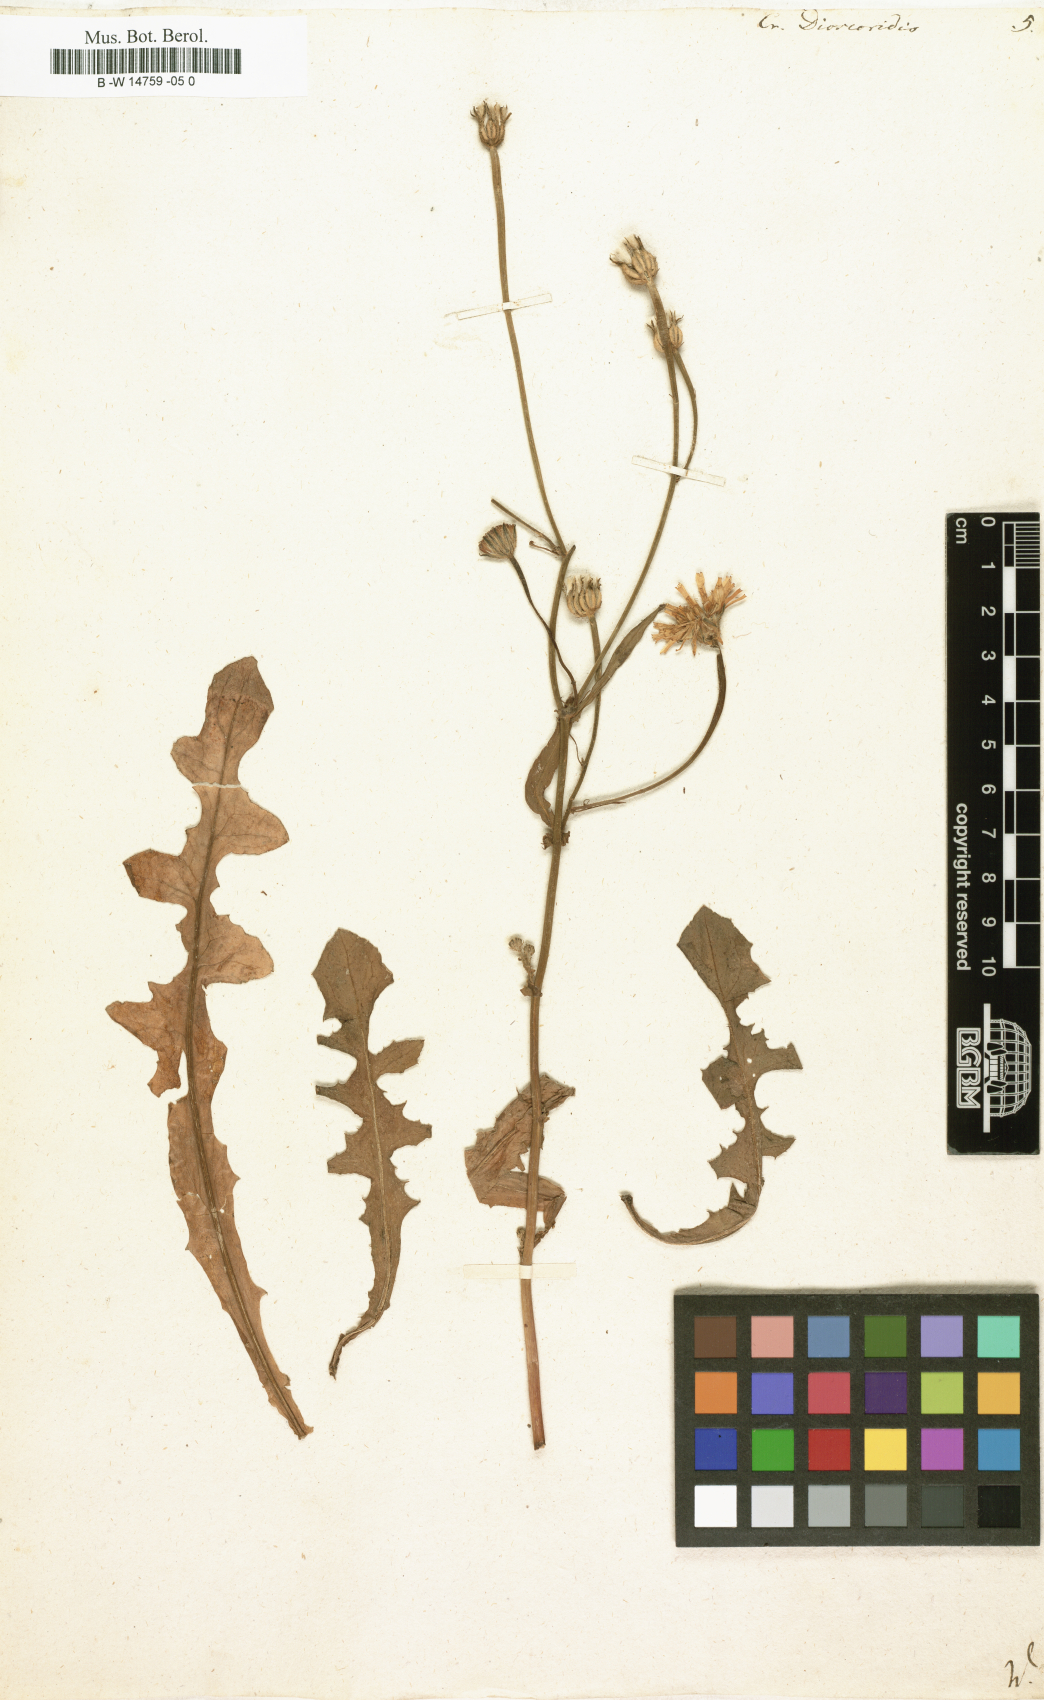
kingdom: Plantae
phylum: Tracheophyta
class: Magnoliopsida
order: Asterales
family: Asteraceae
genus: Crepis
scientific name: Crepis dioscoridis
